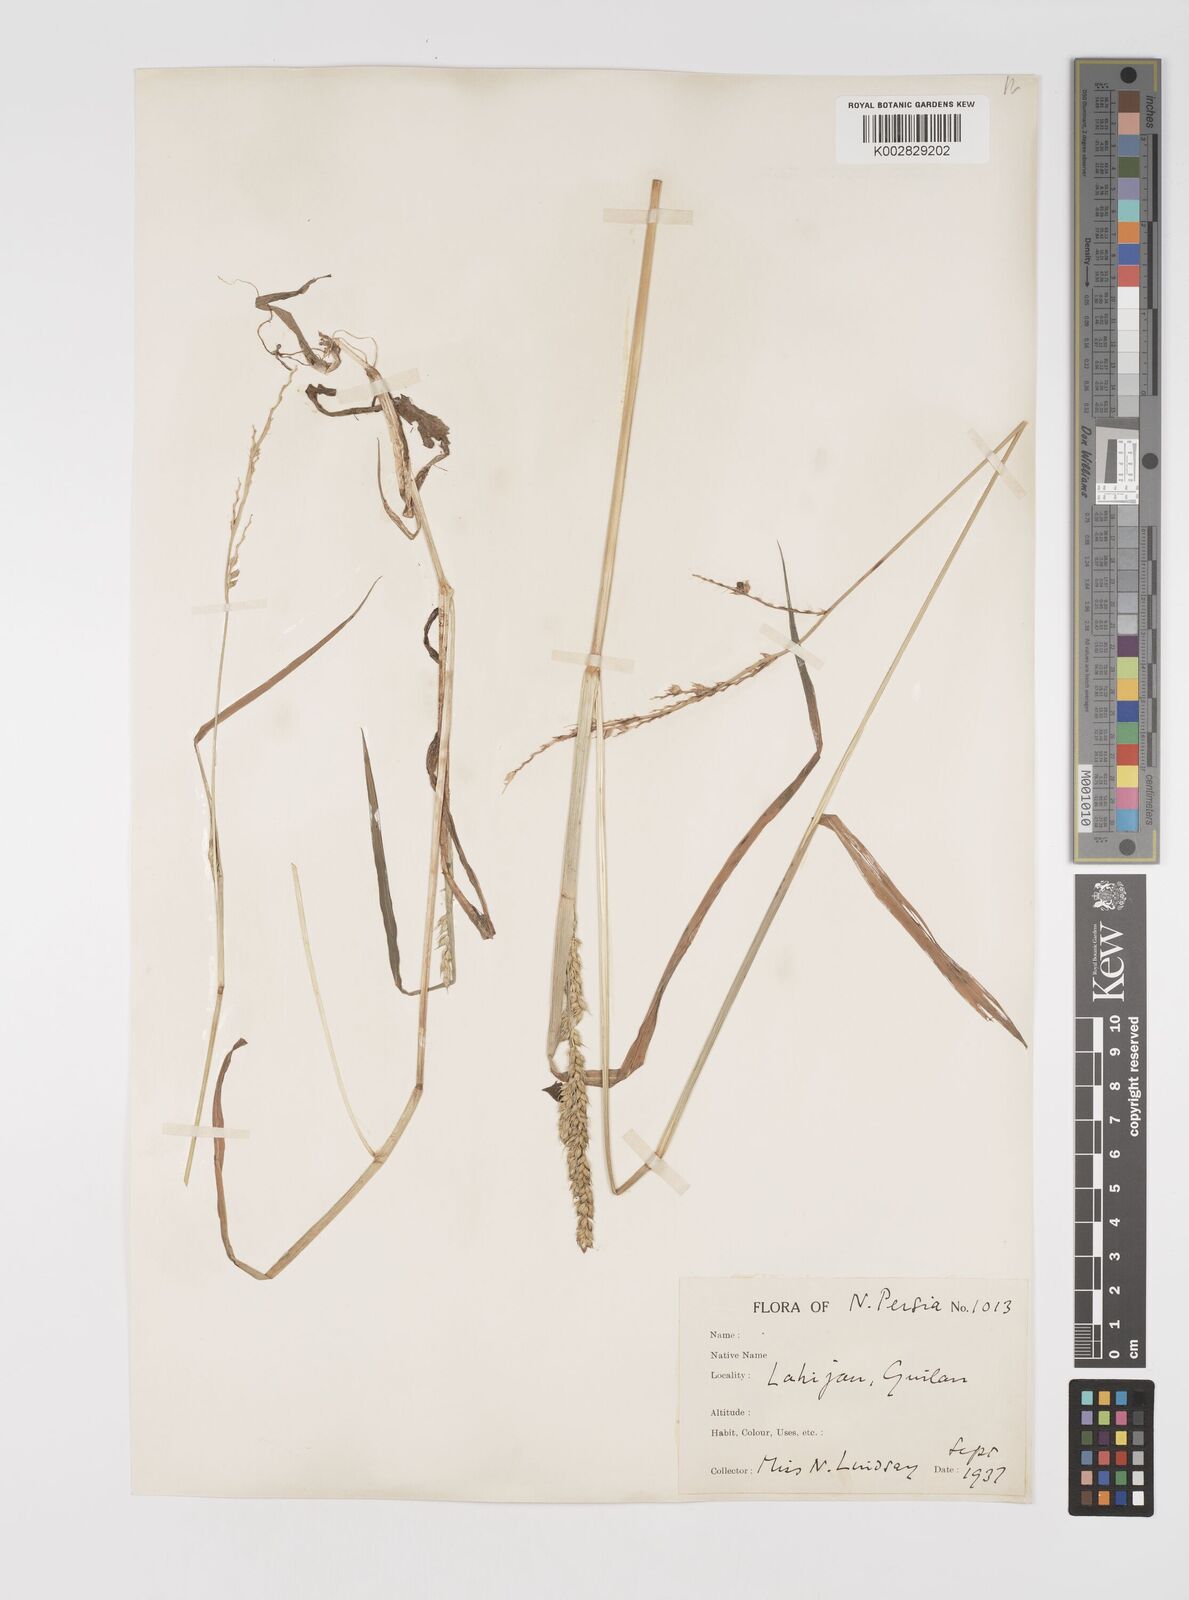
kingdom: Plantae
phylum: Tracheophyta
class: Liliopsida
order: Poales
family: Poaceae
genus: Echinochloa
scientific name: Echinochloa crus-galli
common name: Cockspur
